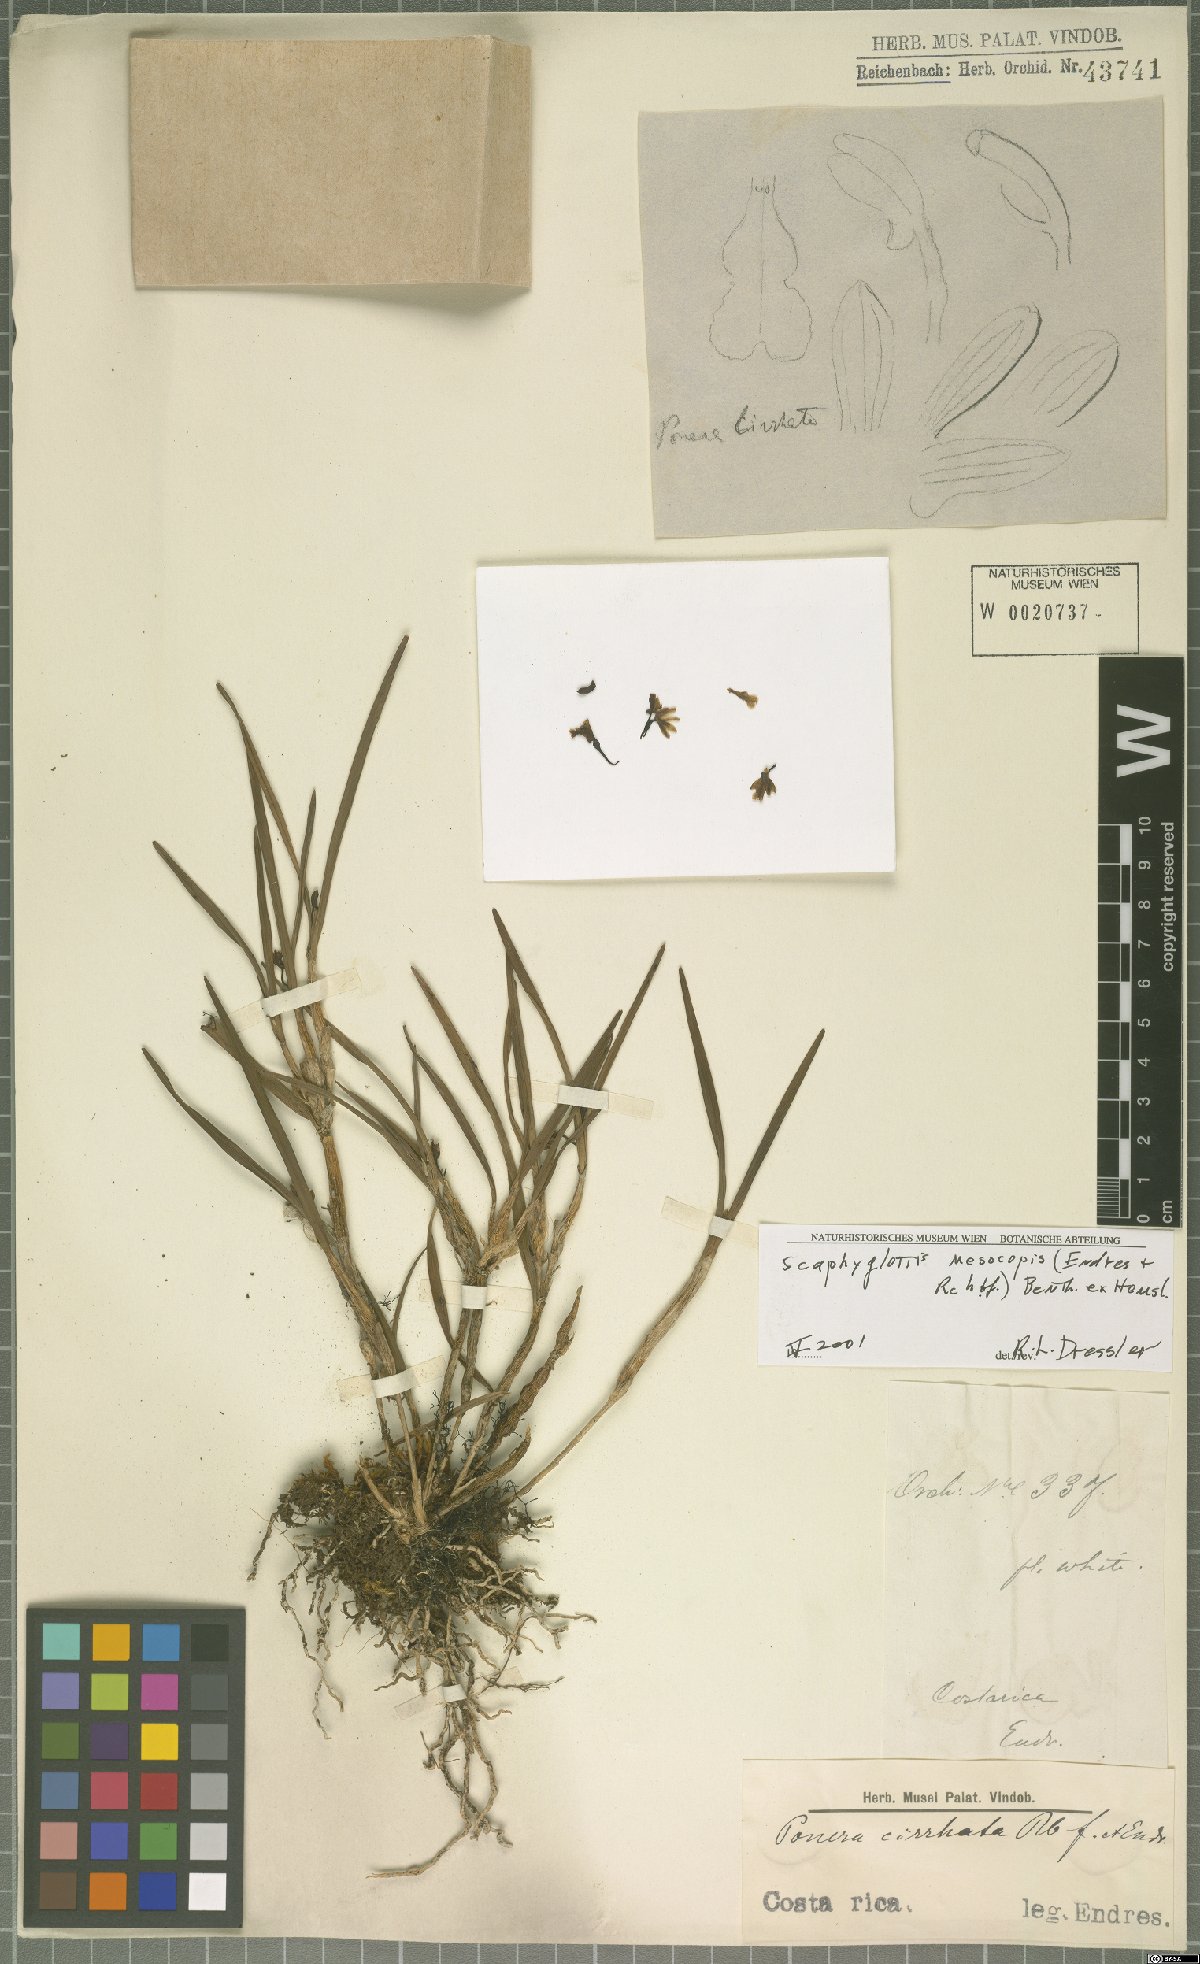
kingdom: Plantae
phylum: Tracheophyta
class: Liliopsida
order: Asparagales
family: Orchidaceae
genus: Scaphyglottis
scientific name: Scaphyglottis mesocopis
